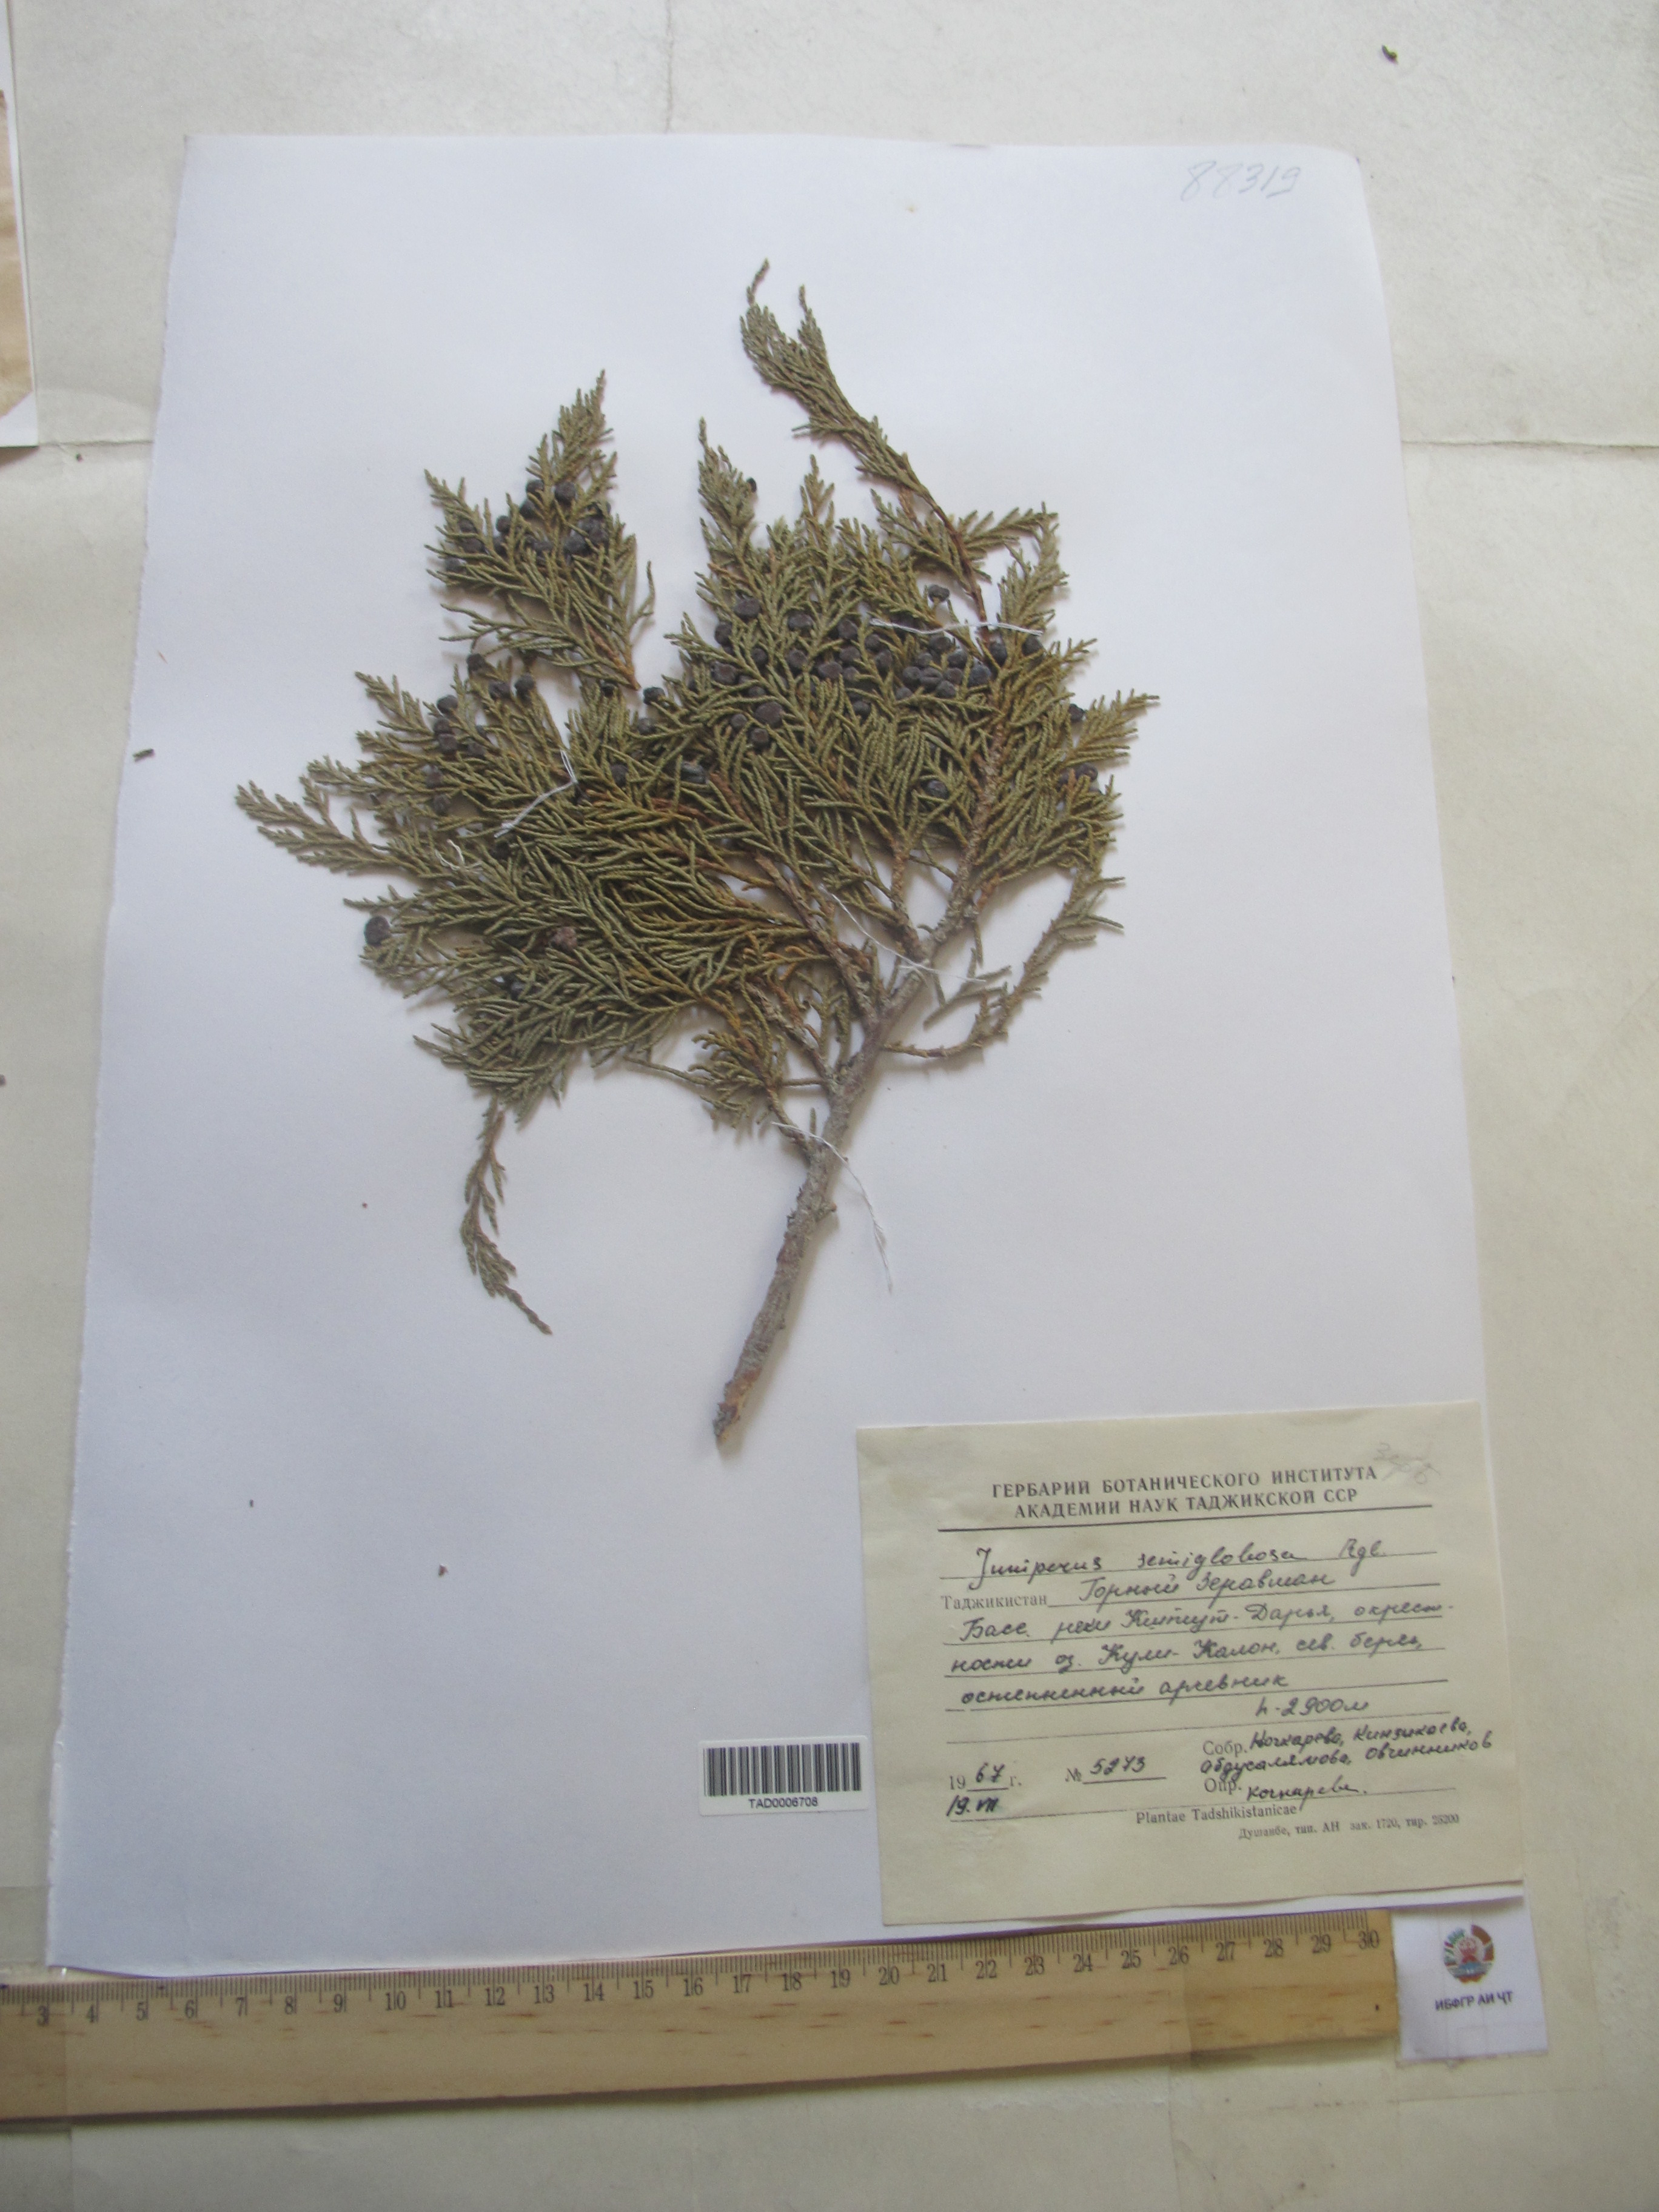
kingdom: Plantae
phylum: Tracheophyta
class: Pinopsida
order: Pinales
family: Cupressaceae
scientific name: Cupressaceae
